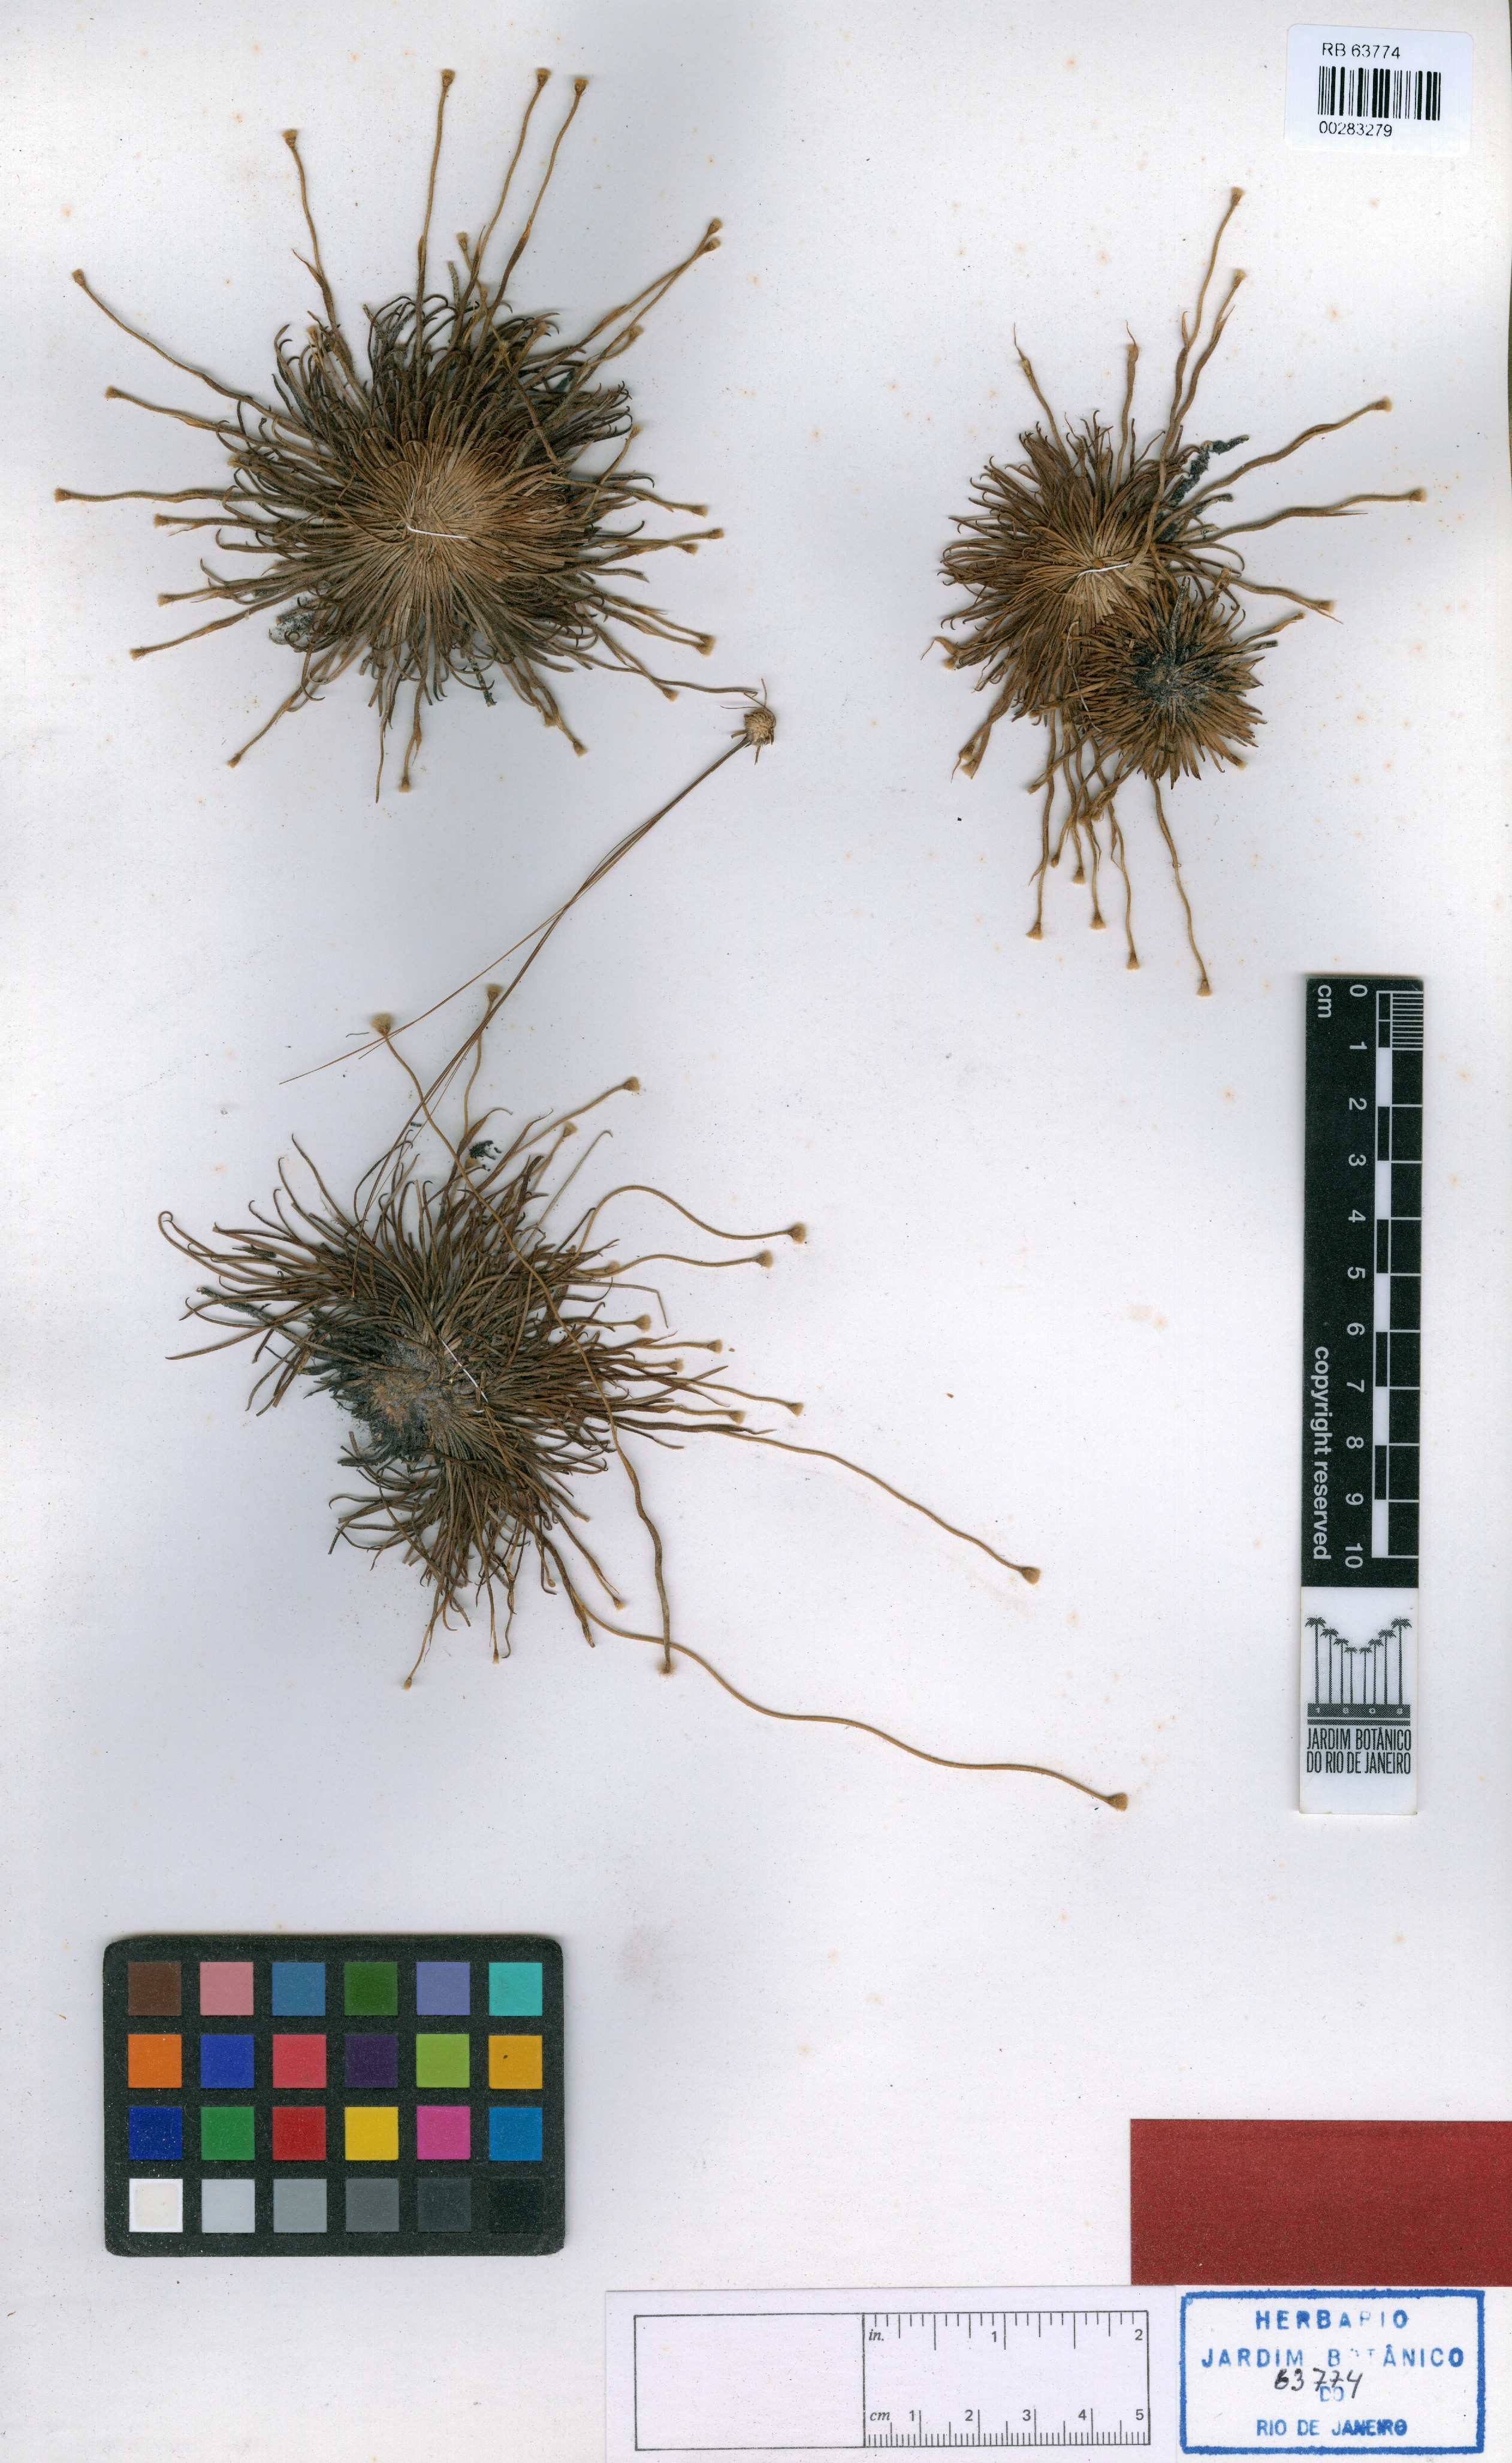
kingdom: Plantae
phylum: Tracheophyta
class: Liliopsida
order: Poales
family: Eriocaulaceae
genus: Leiothrix
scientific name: Leiothrix sinuosa
